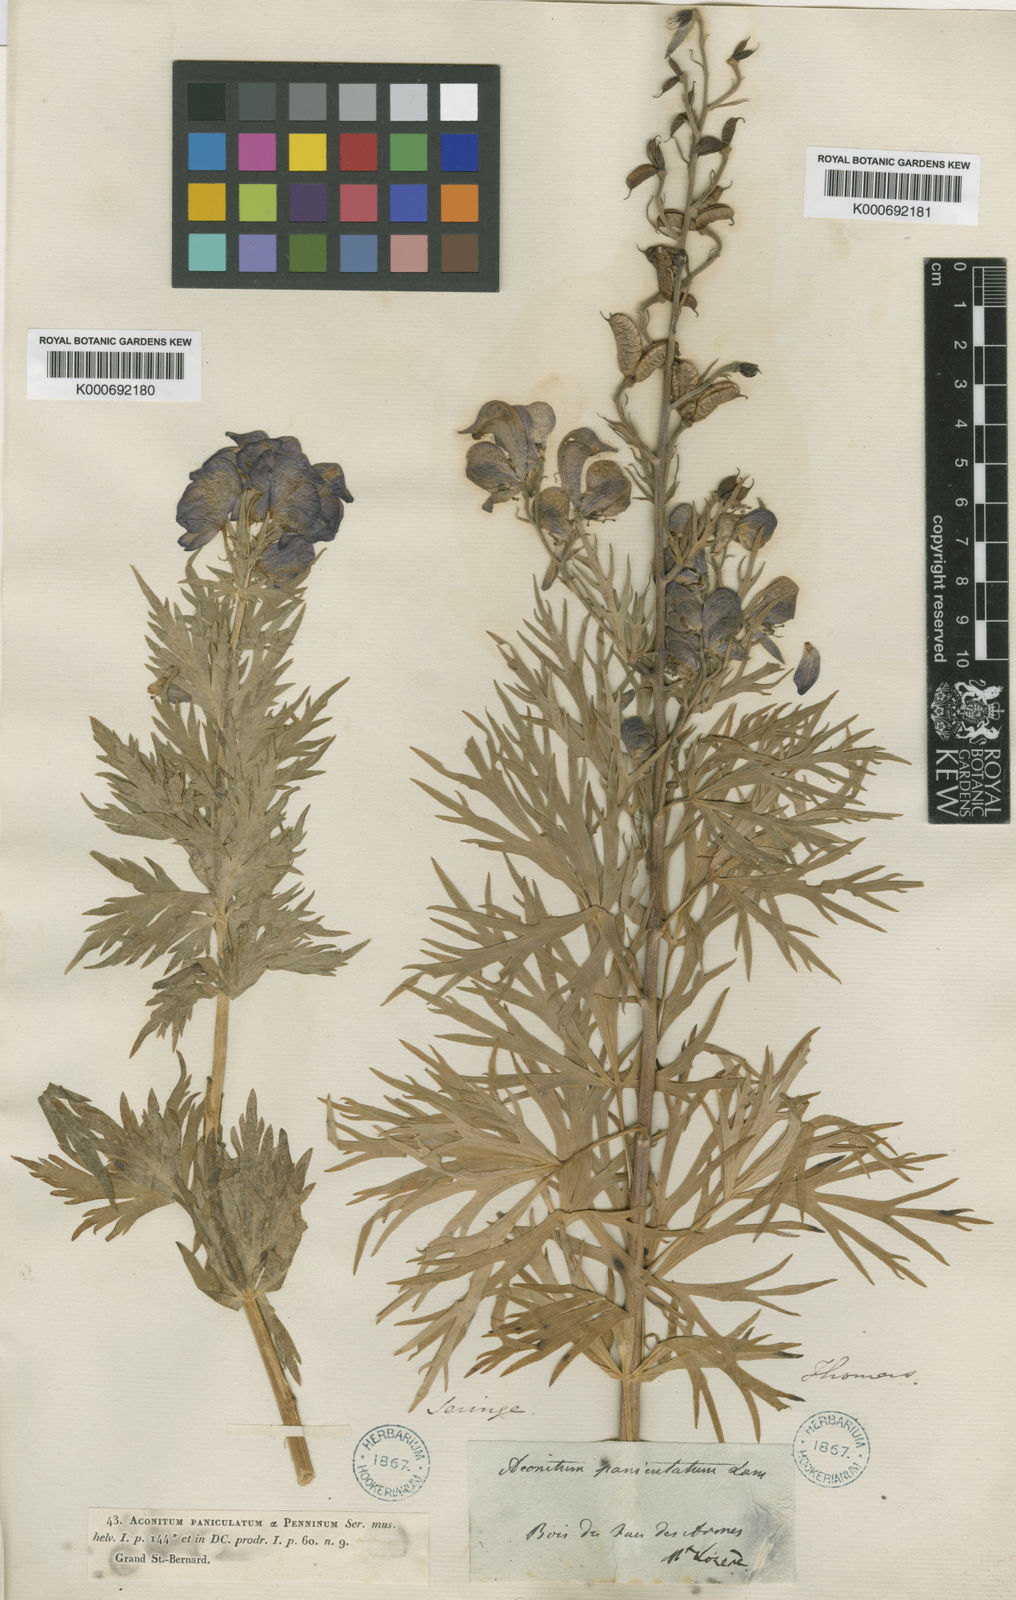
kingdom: Plantae
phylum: Tracheophyta
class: Magnoliopsida
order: Ranunculales
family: Ranunculaceae
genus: Aconitum
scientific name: Aconitum
